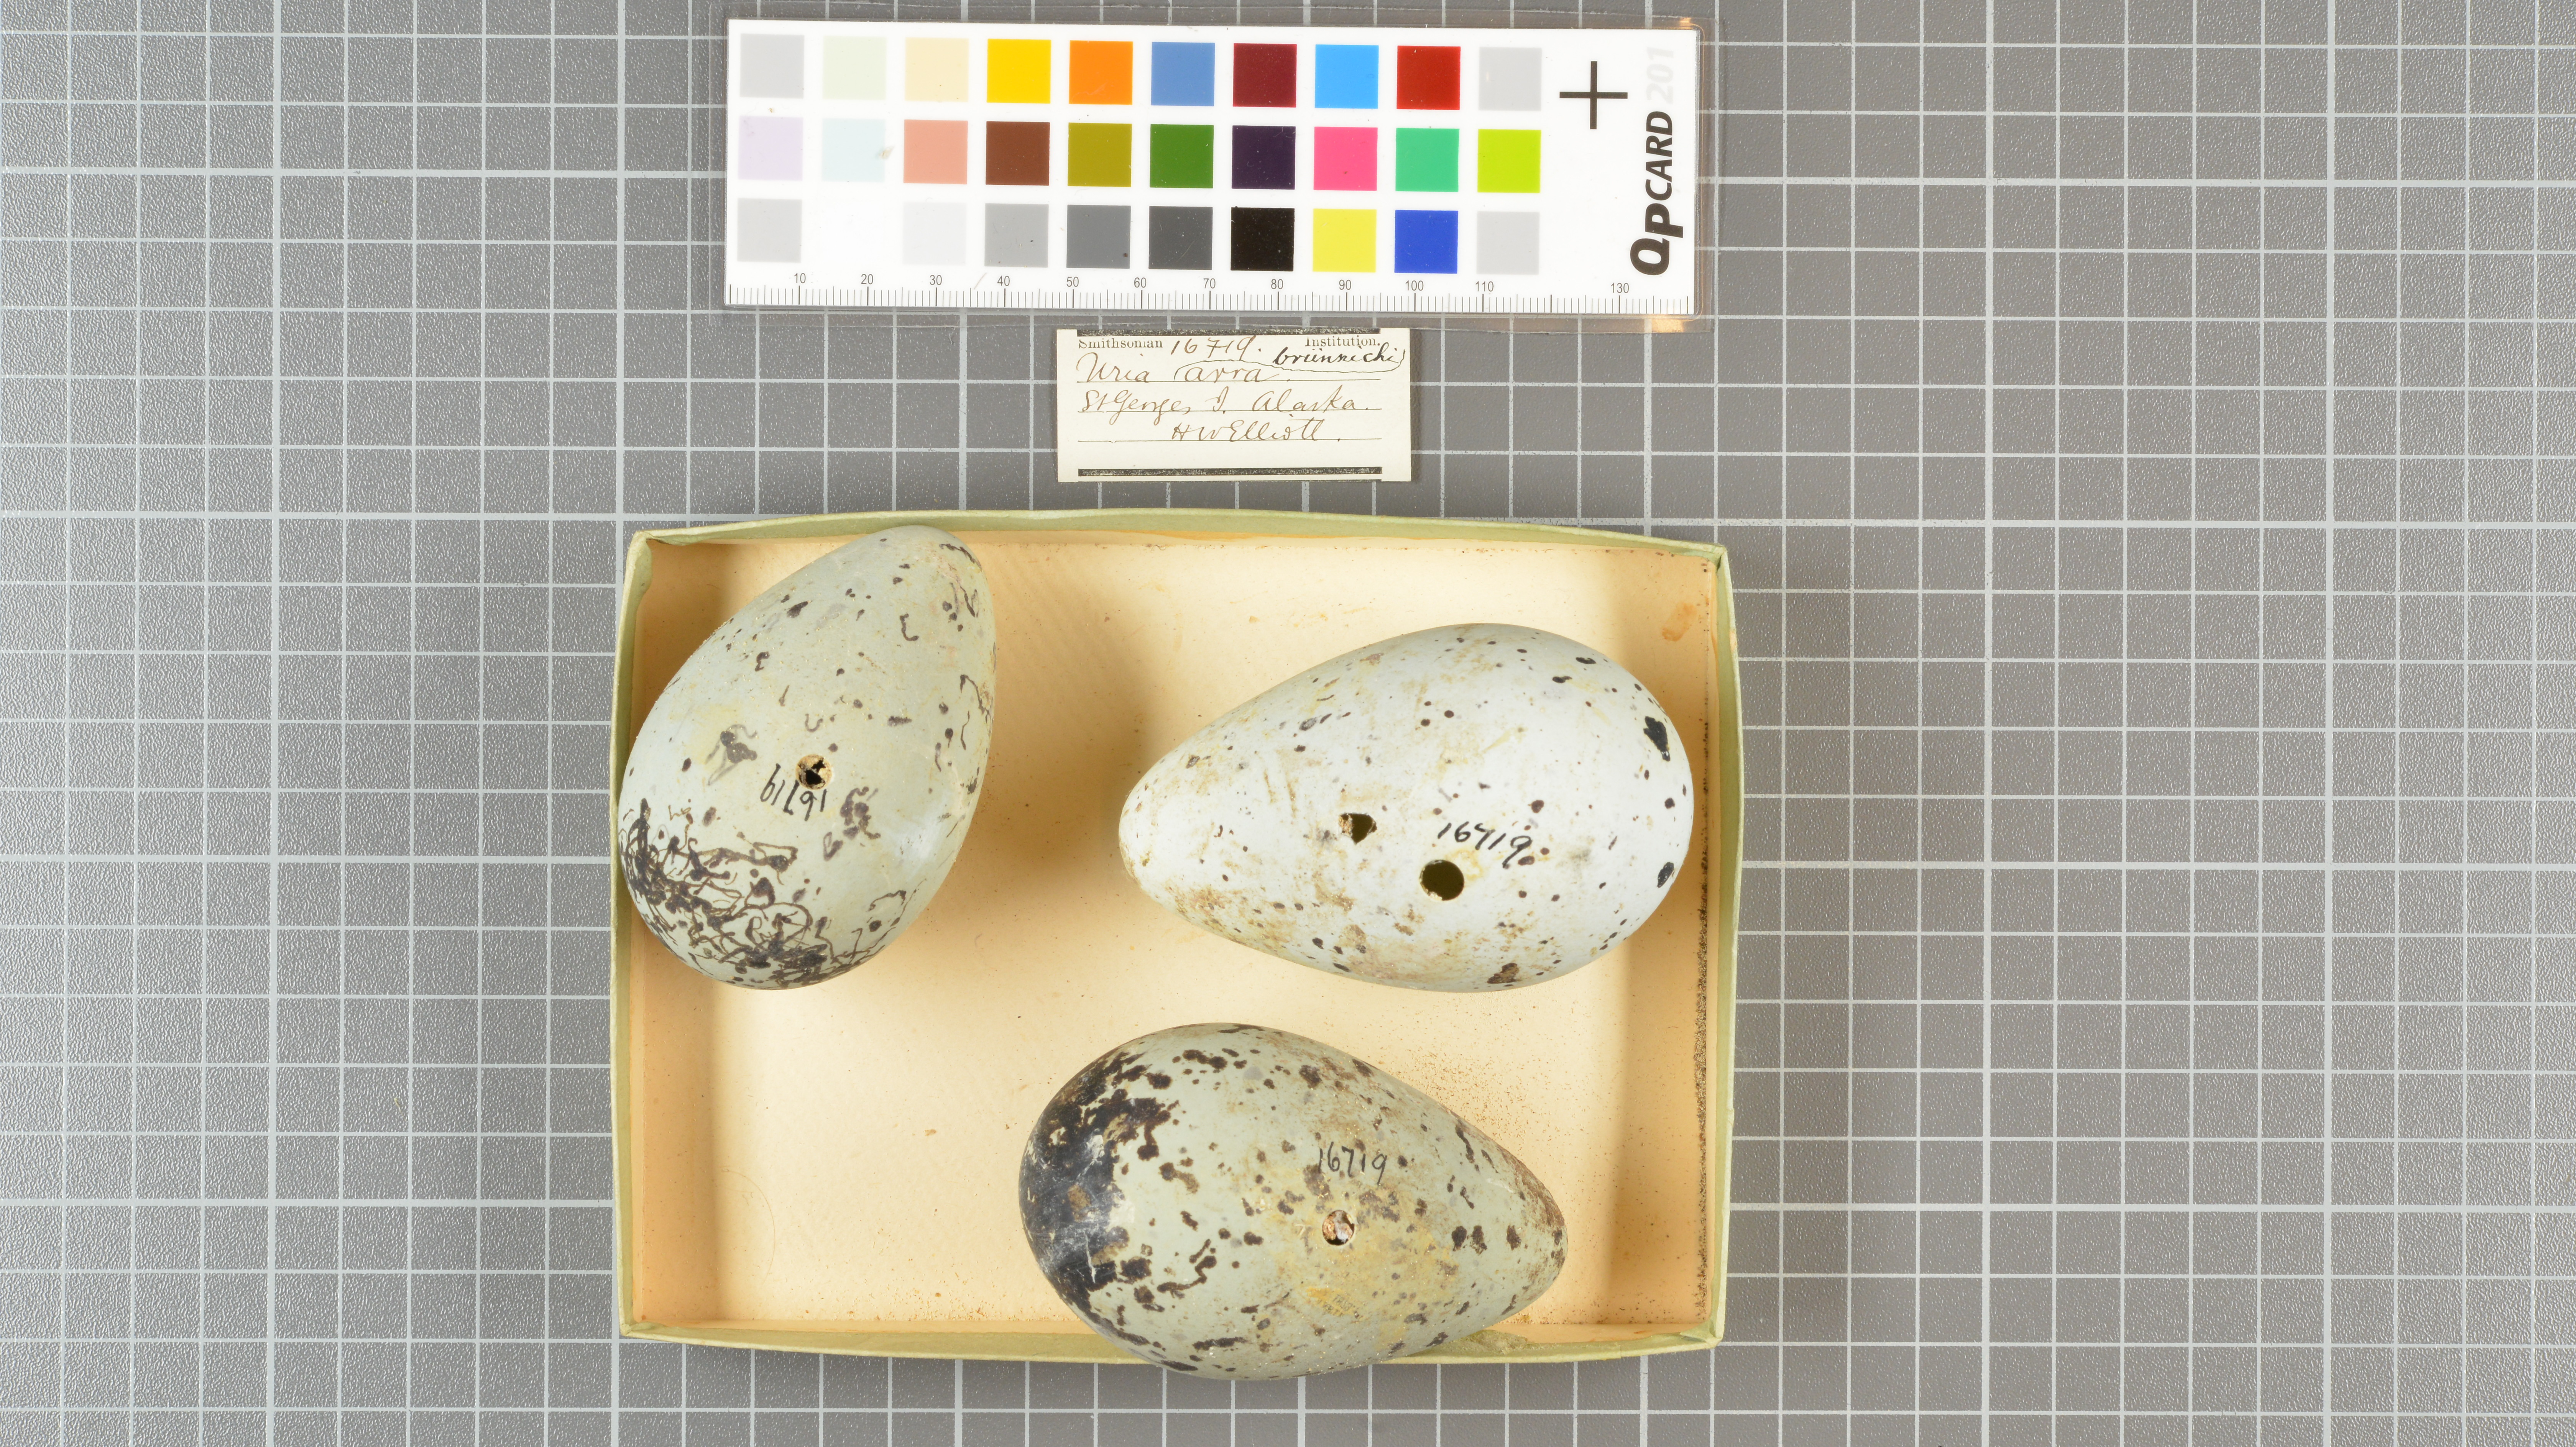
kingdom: Animalia
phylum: Chordata
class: Aves
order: Charadriiformes
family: Alcidae
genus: Uria
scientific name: Uria lomvia
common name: Thick-billed murre
